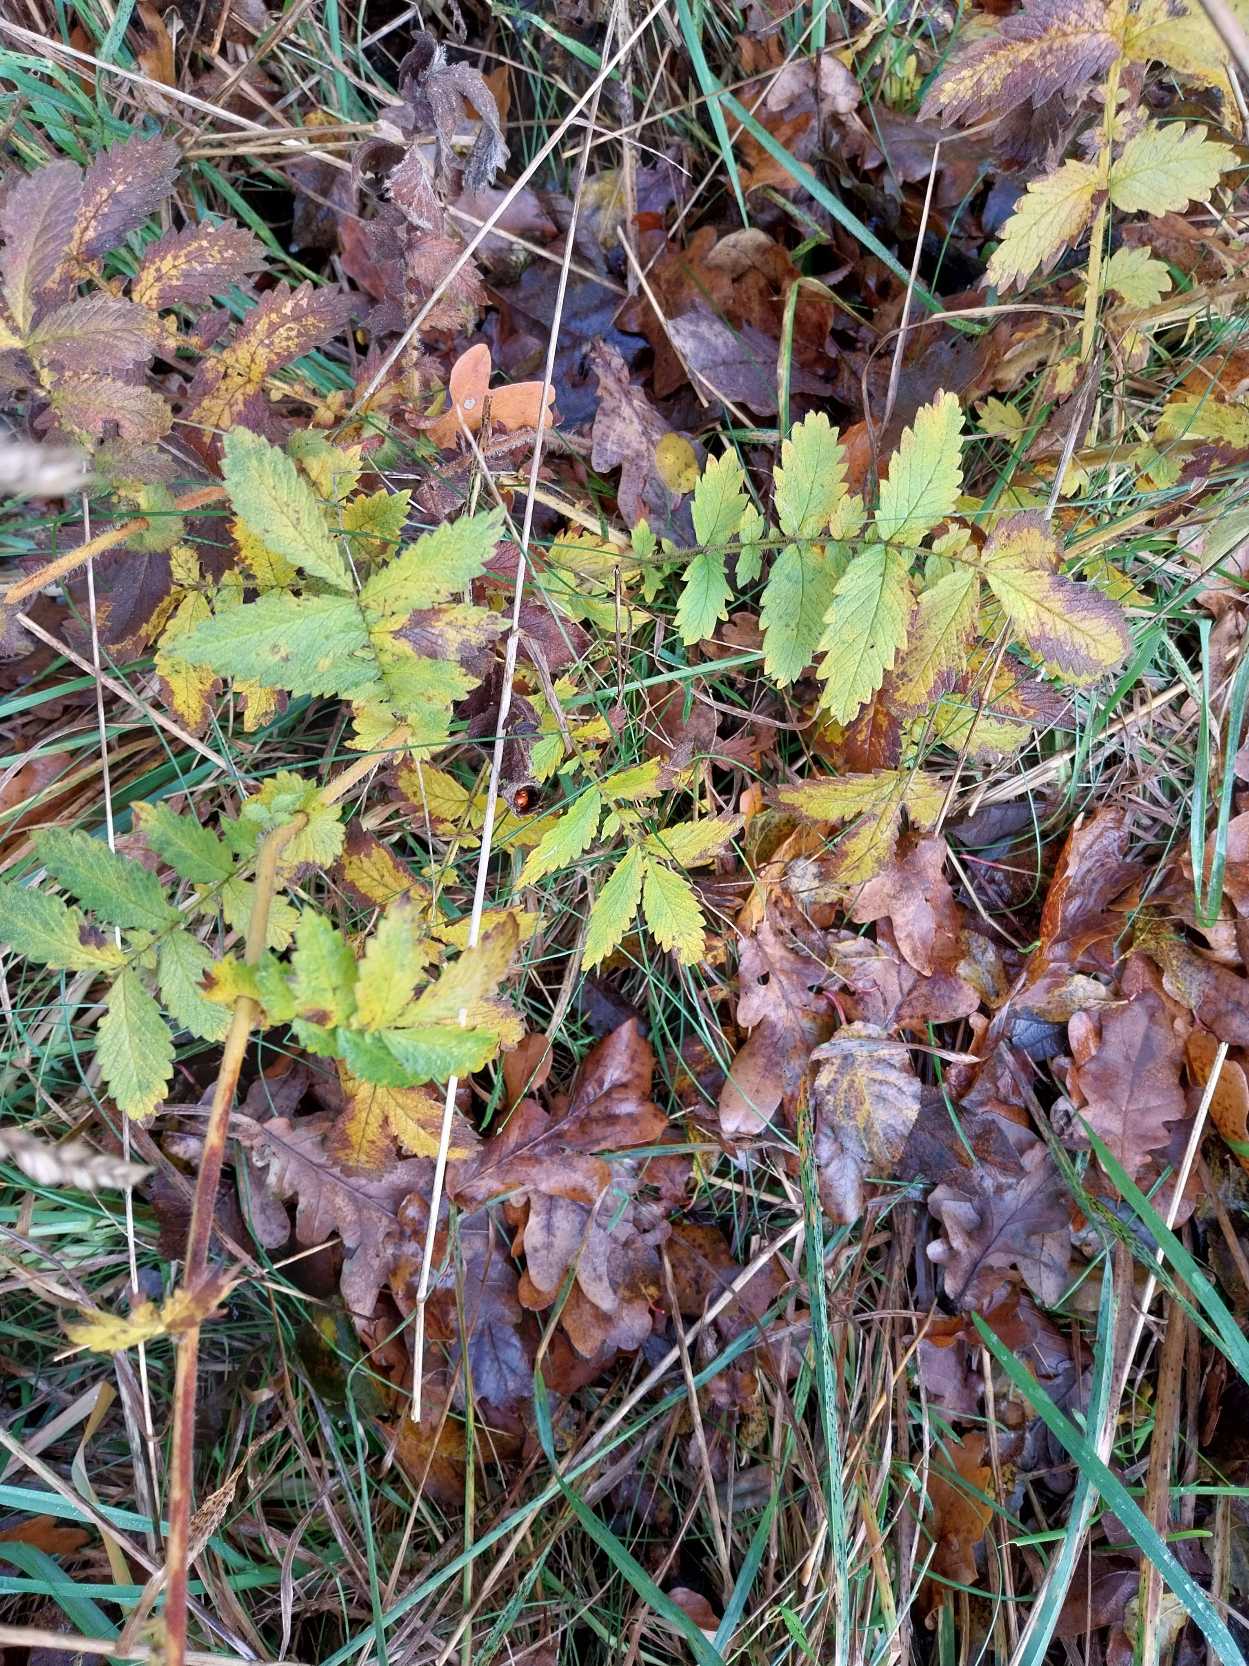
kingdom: Plantae
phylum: Tracheophyta
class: Magnoliopsida
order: Rosales
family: Rosaceae
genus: Agrimonia
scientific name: Agrimonia eupatoria
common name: Almindelig agermåne
